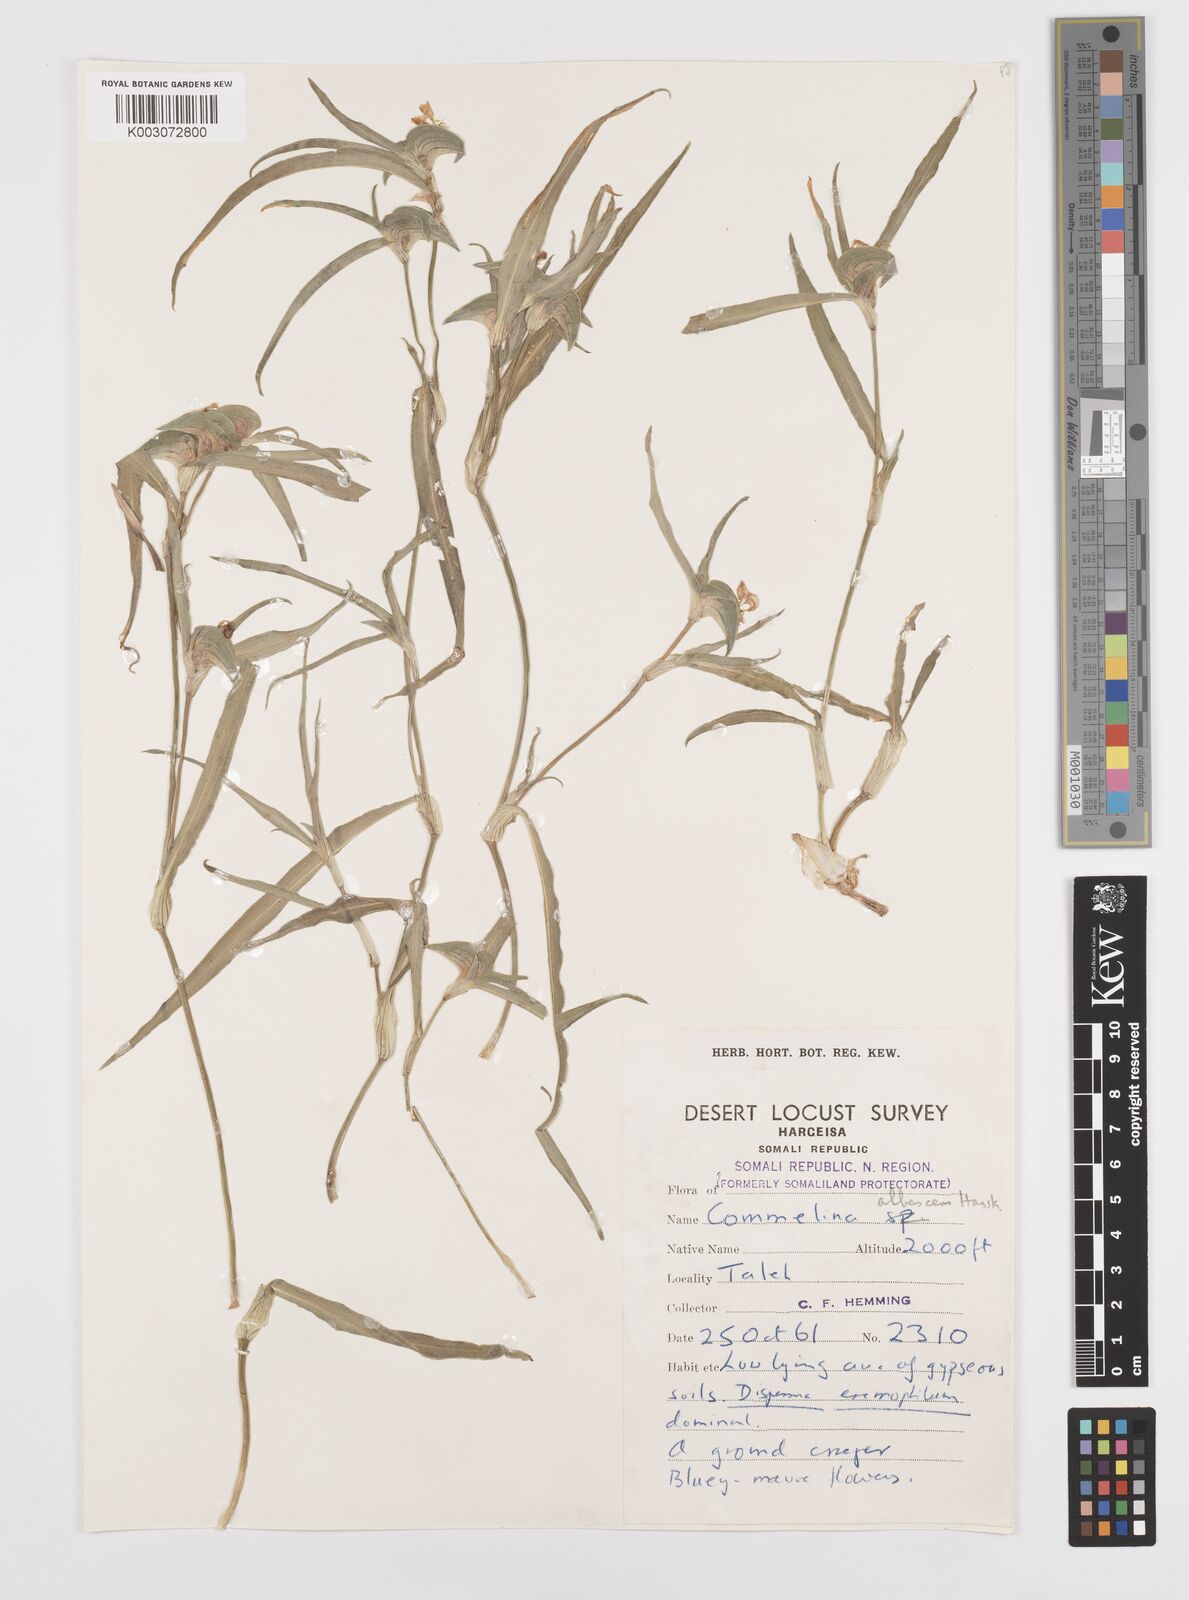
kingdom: Plantae
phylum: Tracheophyta
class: Liliopsida
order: Commelinales
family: Commelinaceae
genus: Commelina
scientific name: Commelina albescens
